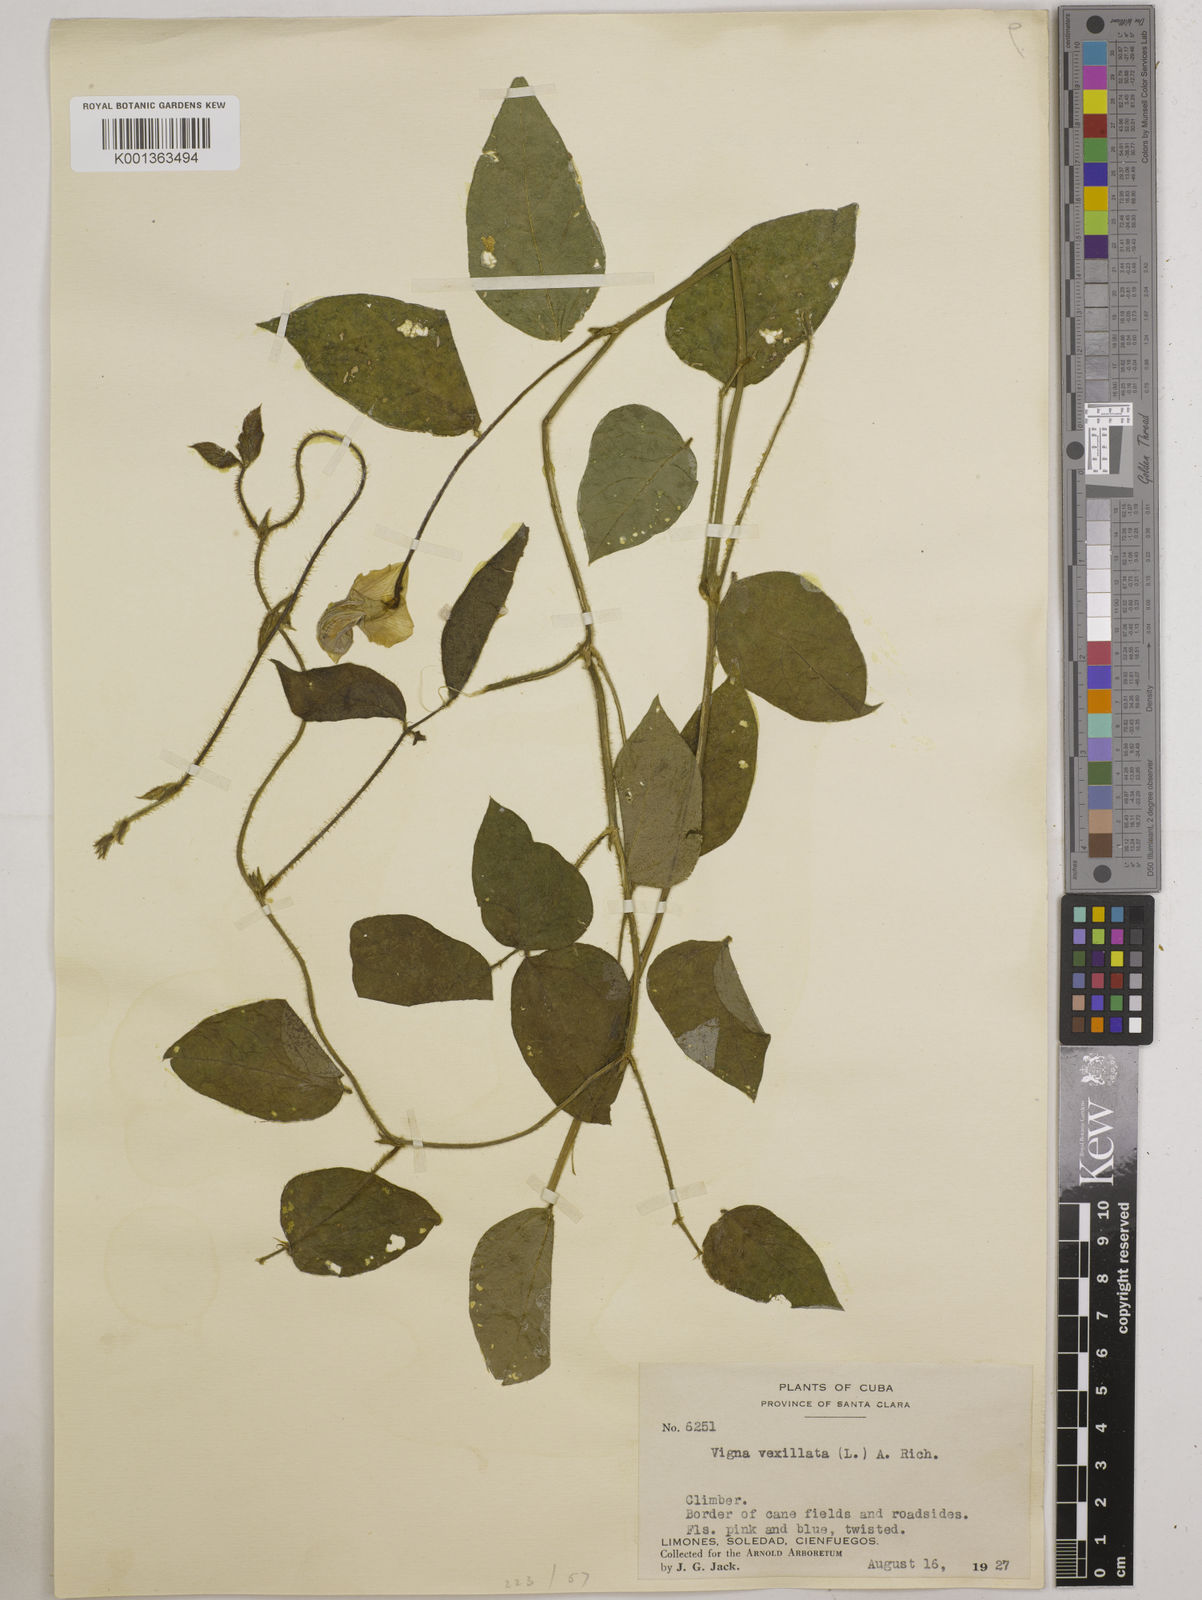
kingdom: Plantae
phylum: Tracheophyta
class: Magnoliopsida
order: Fabales
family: Fabaceae
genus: Vigna
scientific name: Vigna vexillata
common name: Zombi pea
